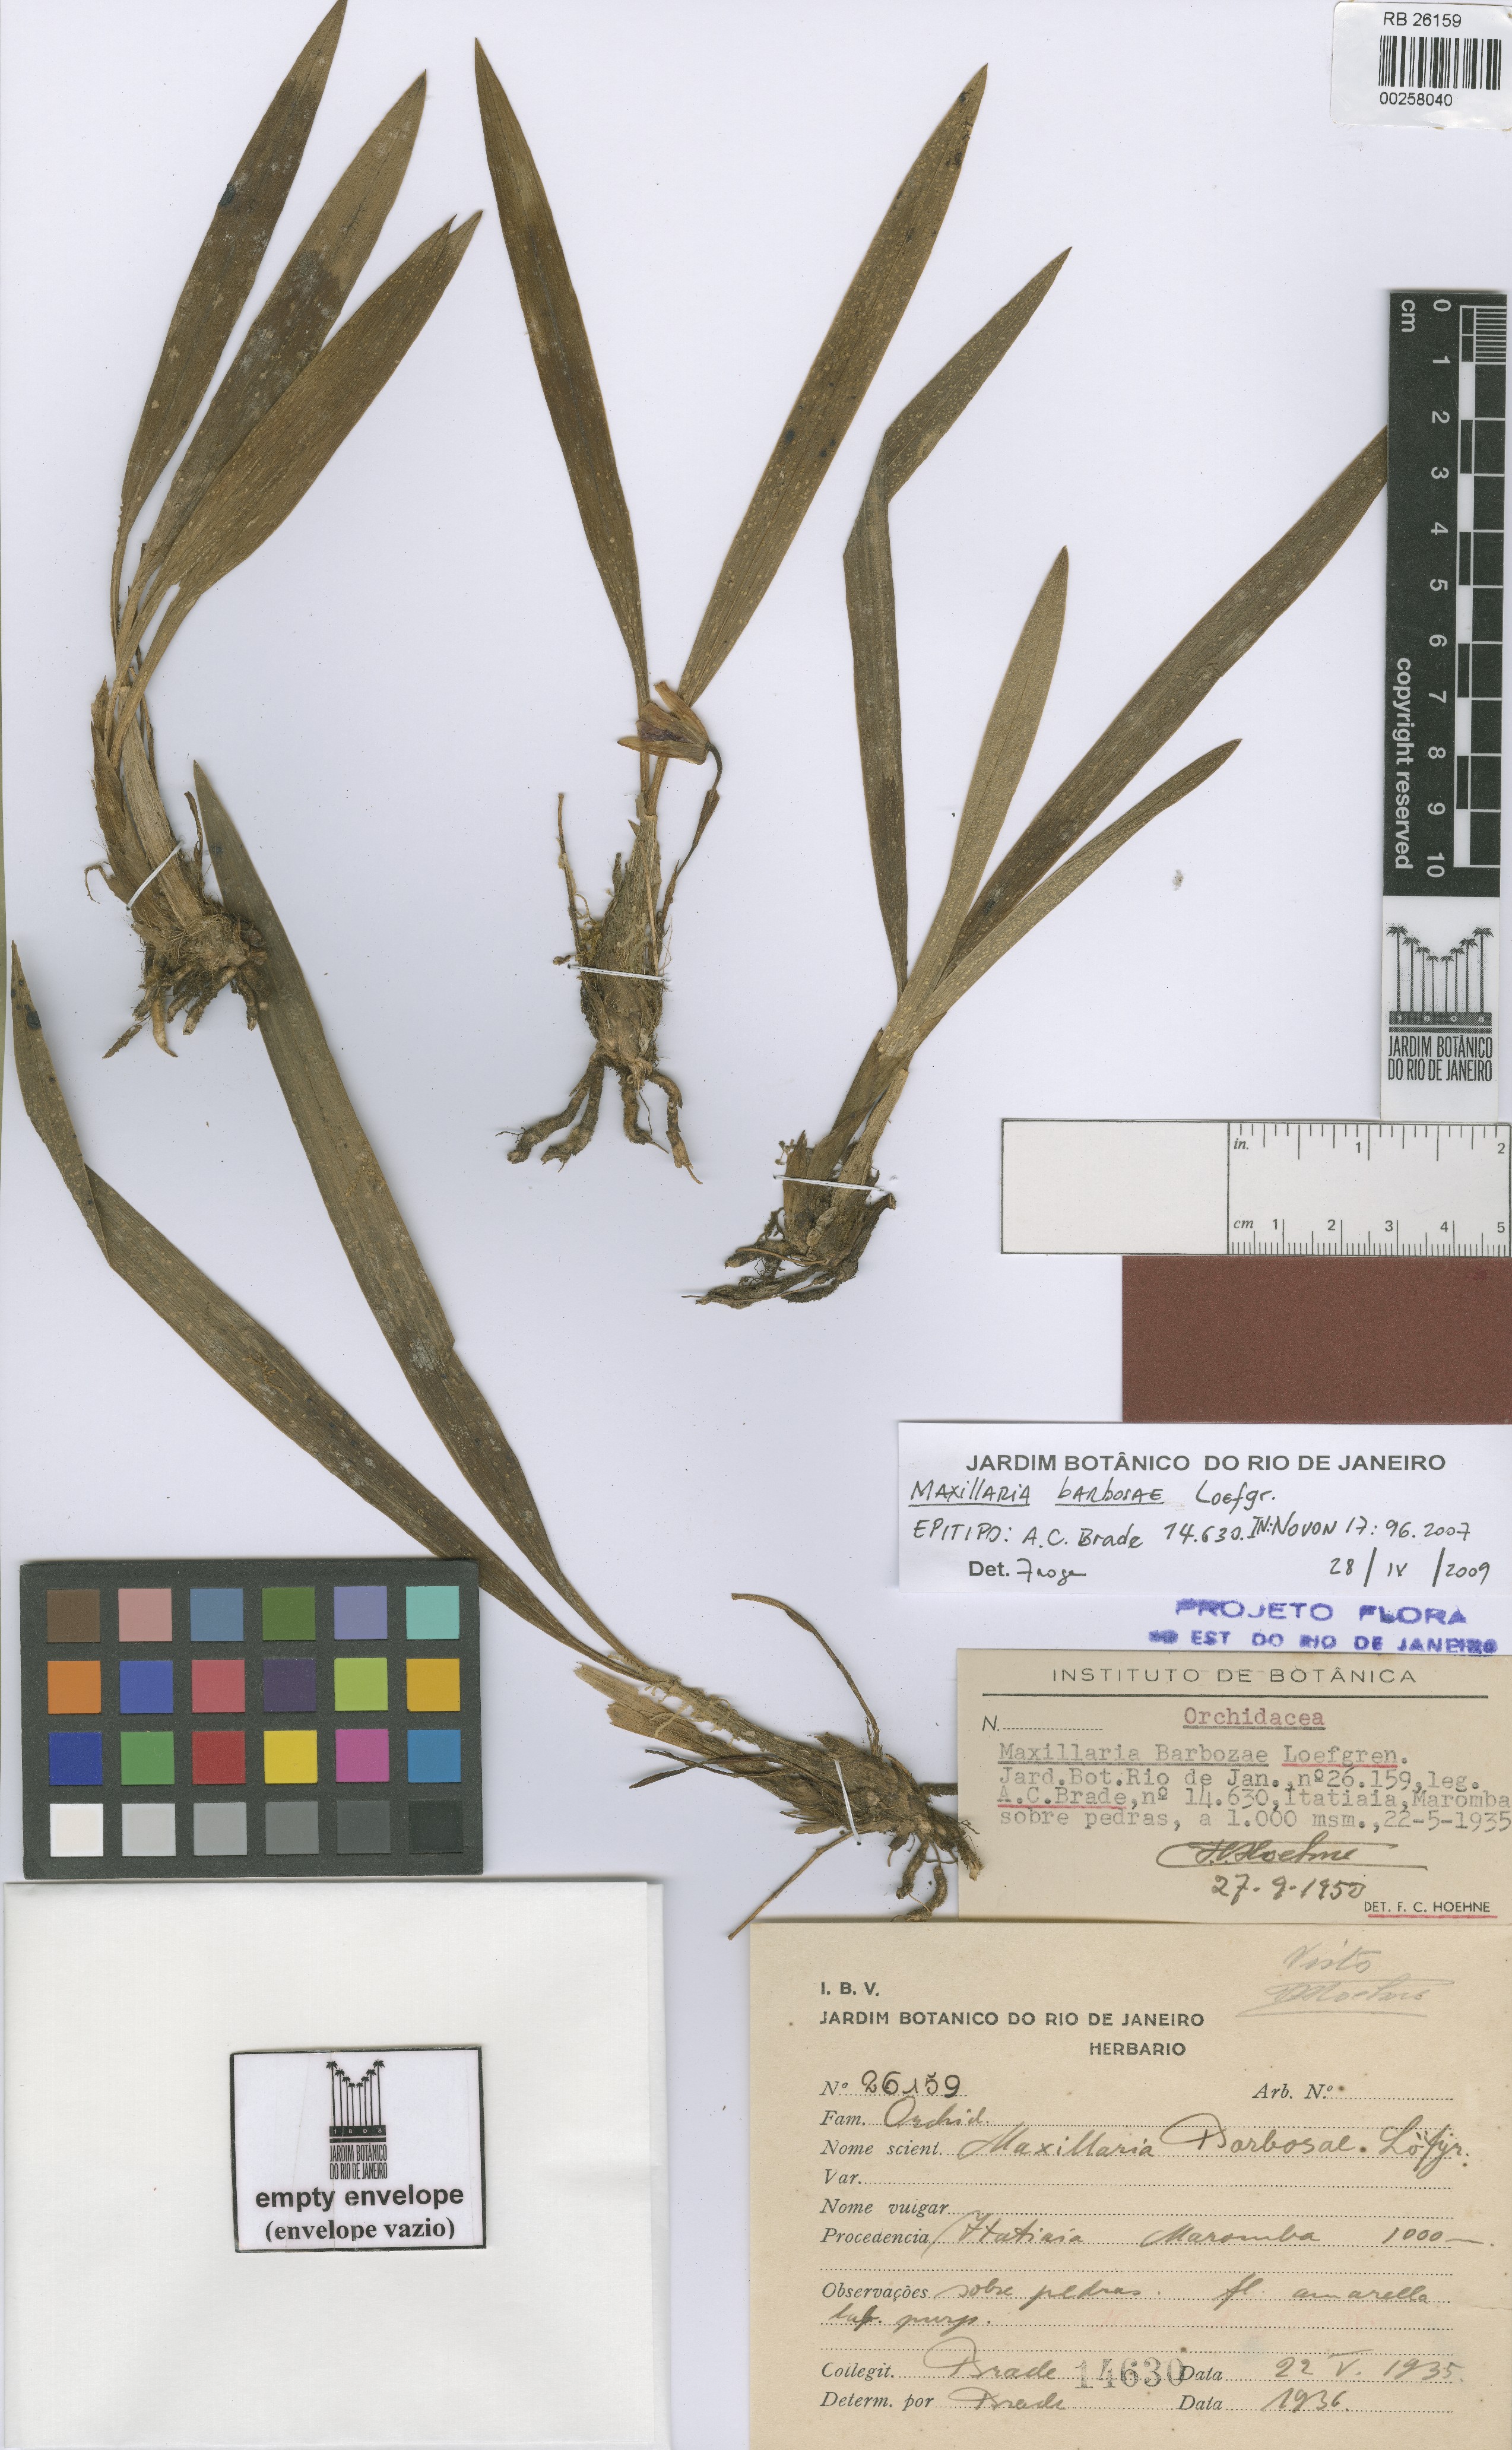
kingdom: Plantae
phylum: Tracheophyta
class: Liliopsida
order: Asparagales
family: Orchidaceae
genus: Maxillaria
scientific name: Maxillaria barbosae
